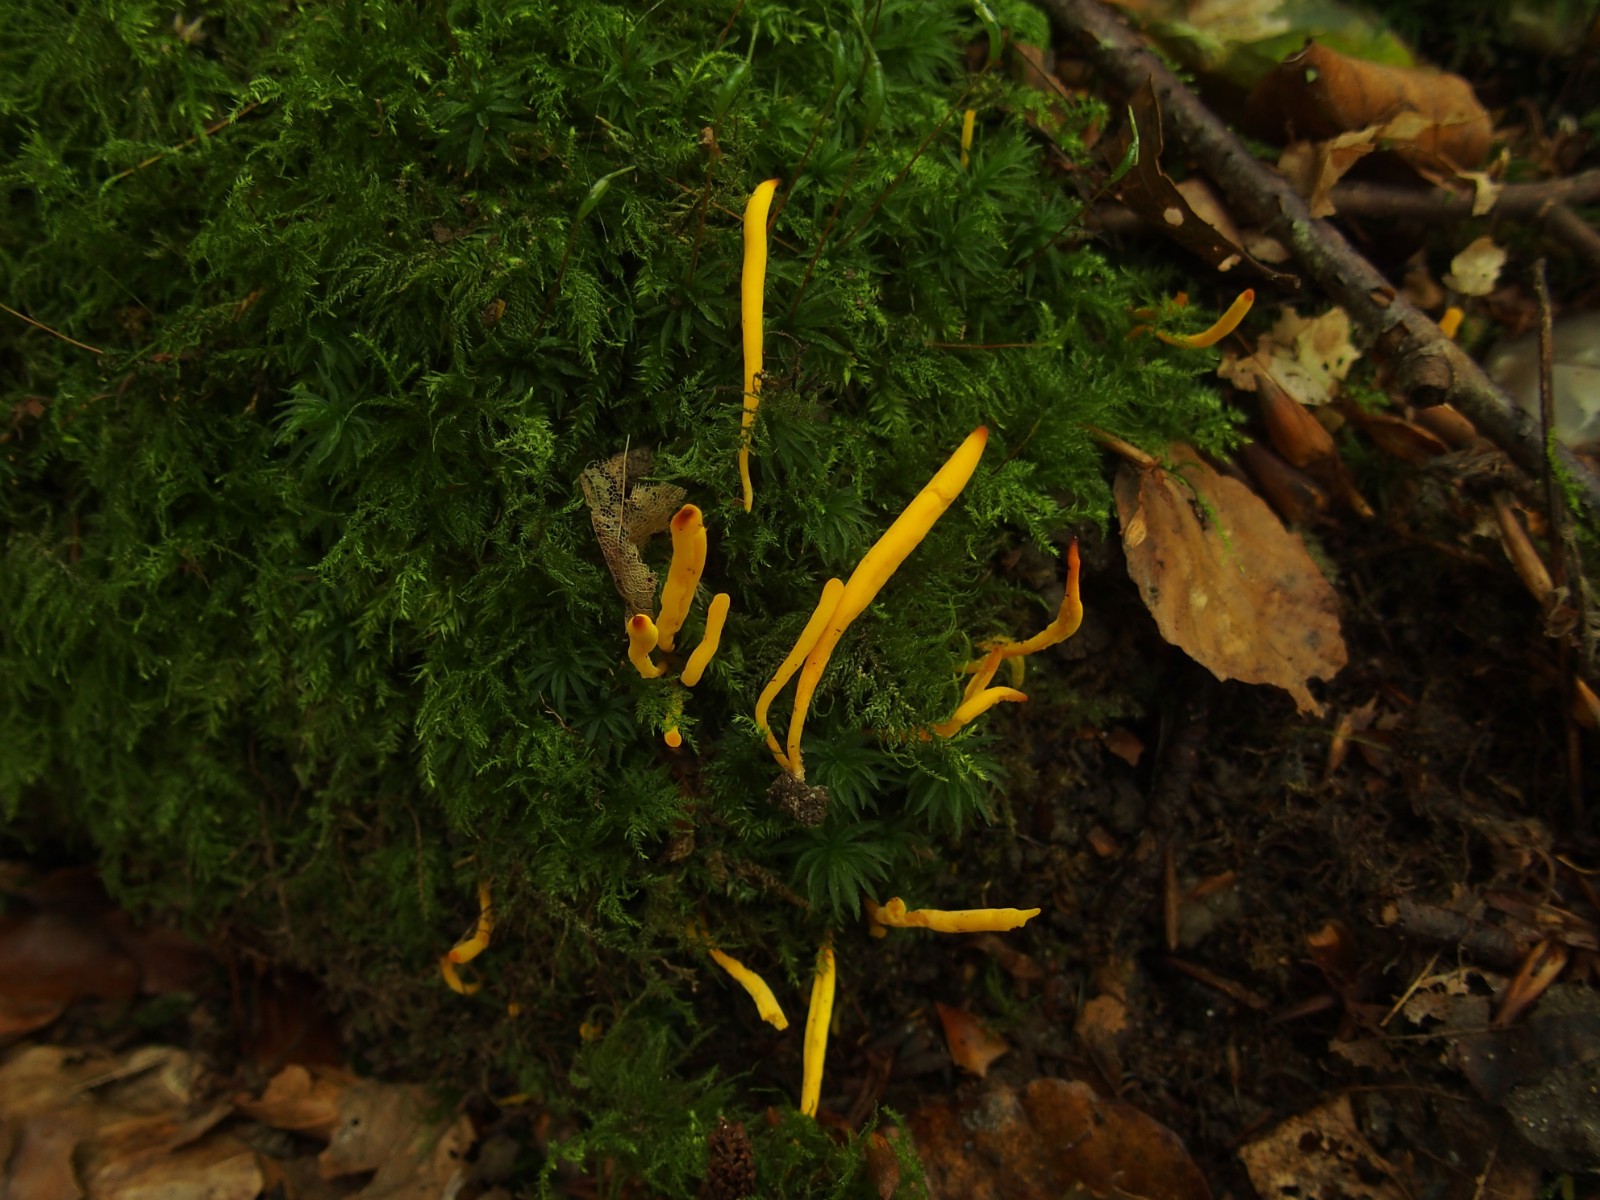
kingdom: Fungi
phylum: Basidiomycota
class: Agaricomycetes
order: Agaricales
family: Clavariaceae
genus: Clavulinopsis
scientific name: Clavulinopsis laeticolor
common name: flamme-køllesvamp
